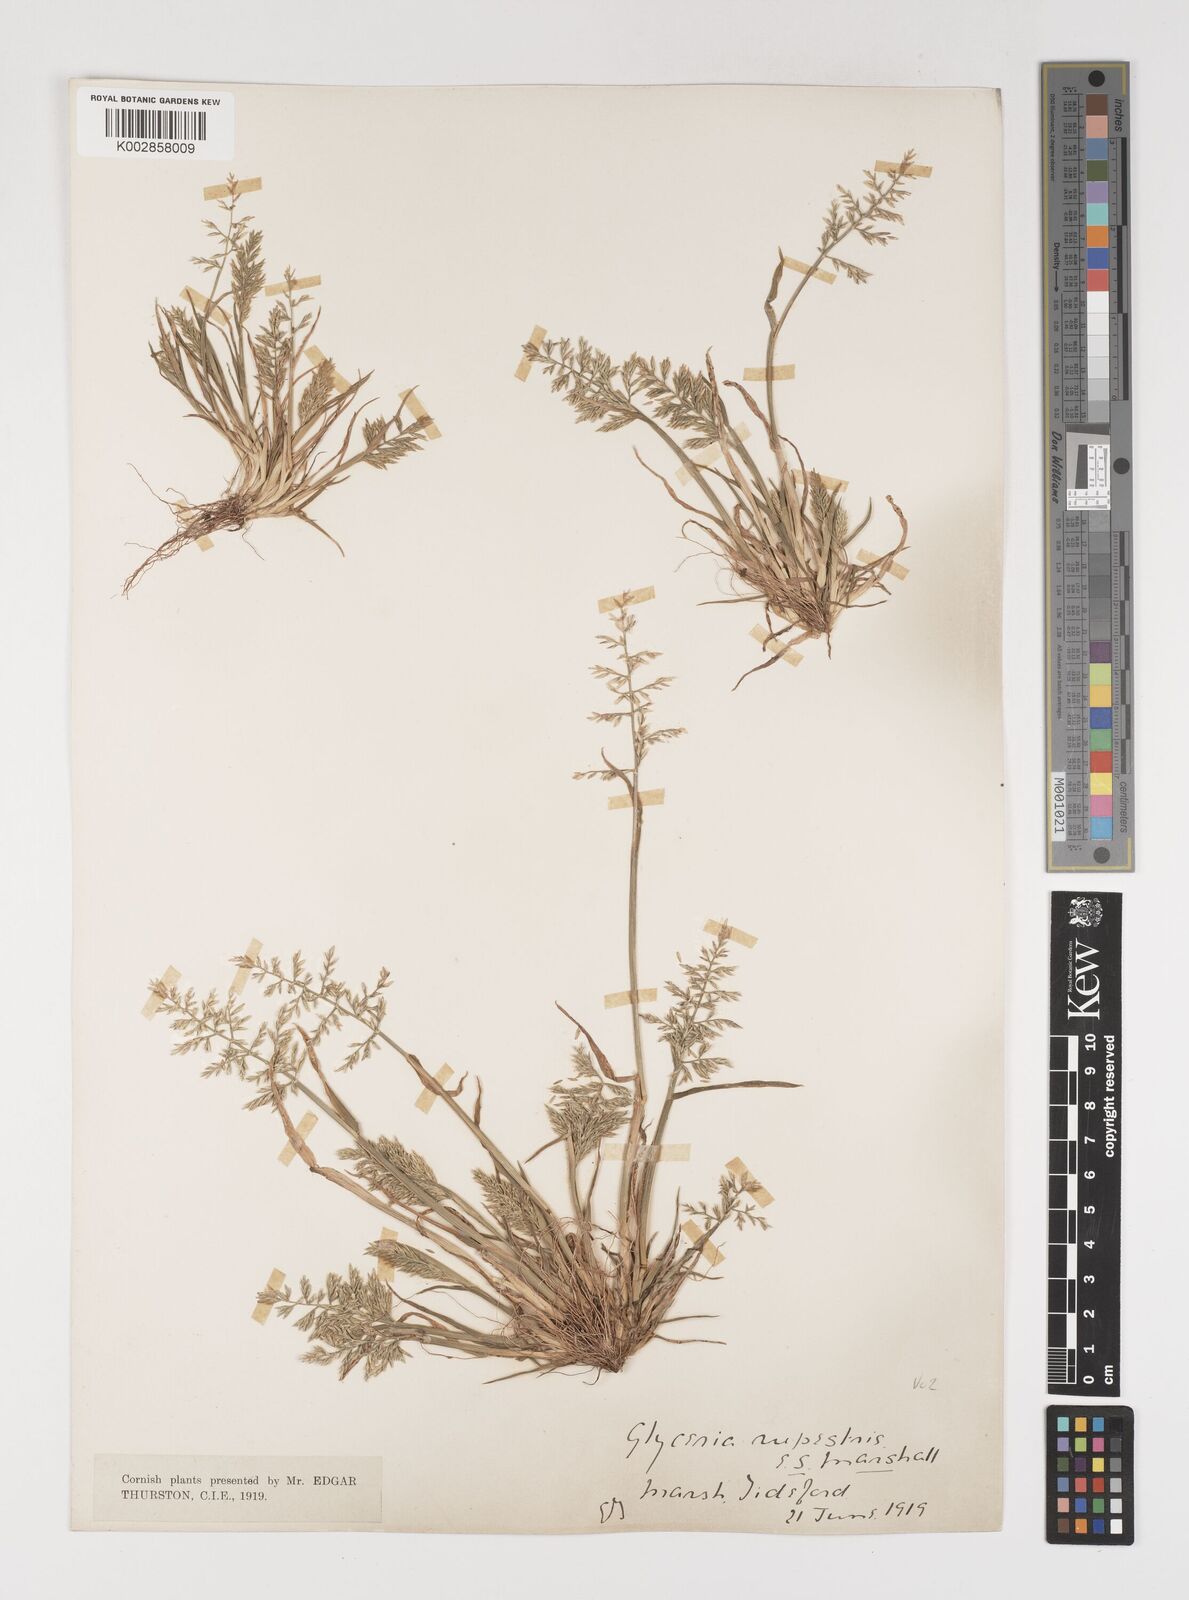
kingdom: Plantae
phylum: Tracheophyta
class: Liliopsida
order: Poales
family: Poaceae
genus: Puccinellia
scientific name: Puccinellia rupestris
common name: Stiff saltmarsh-grass
